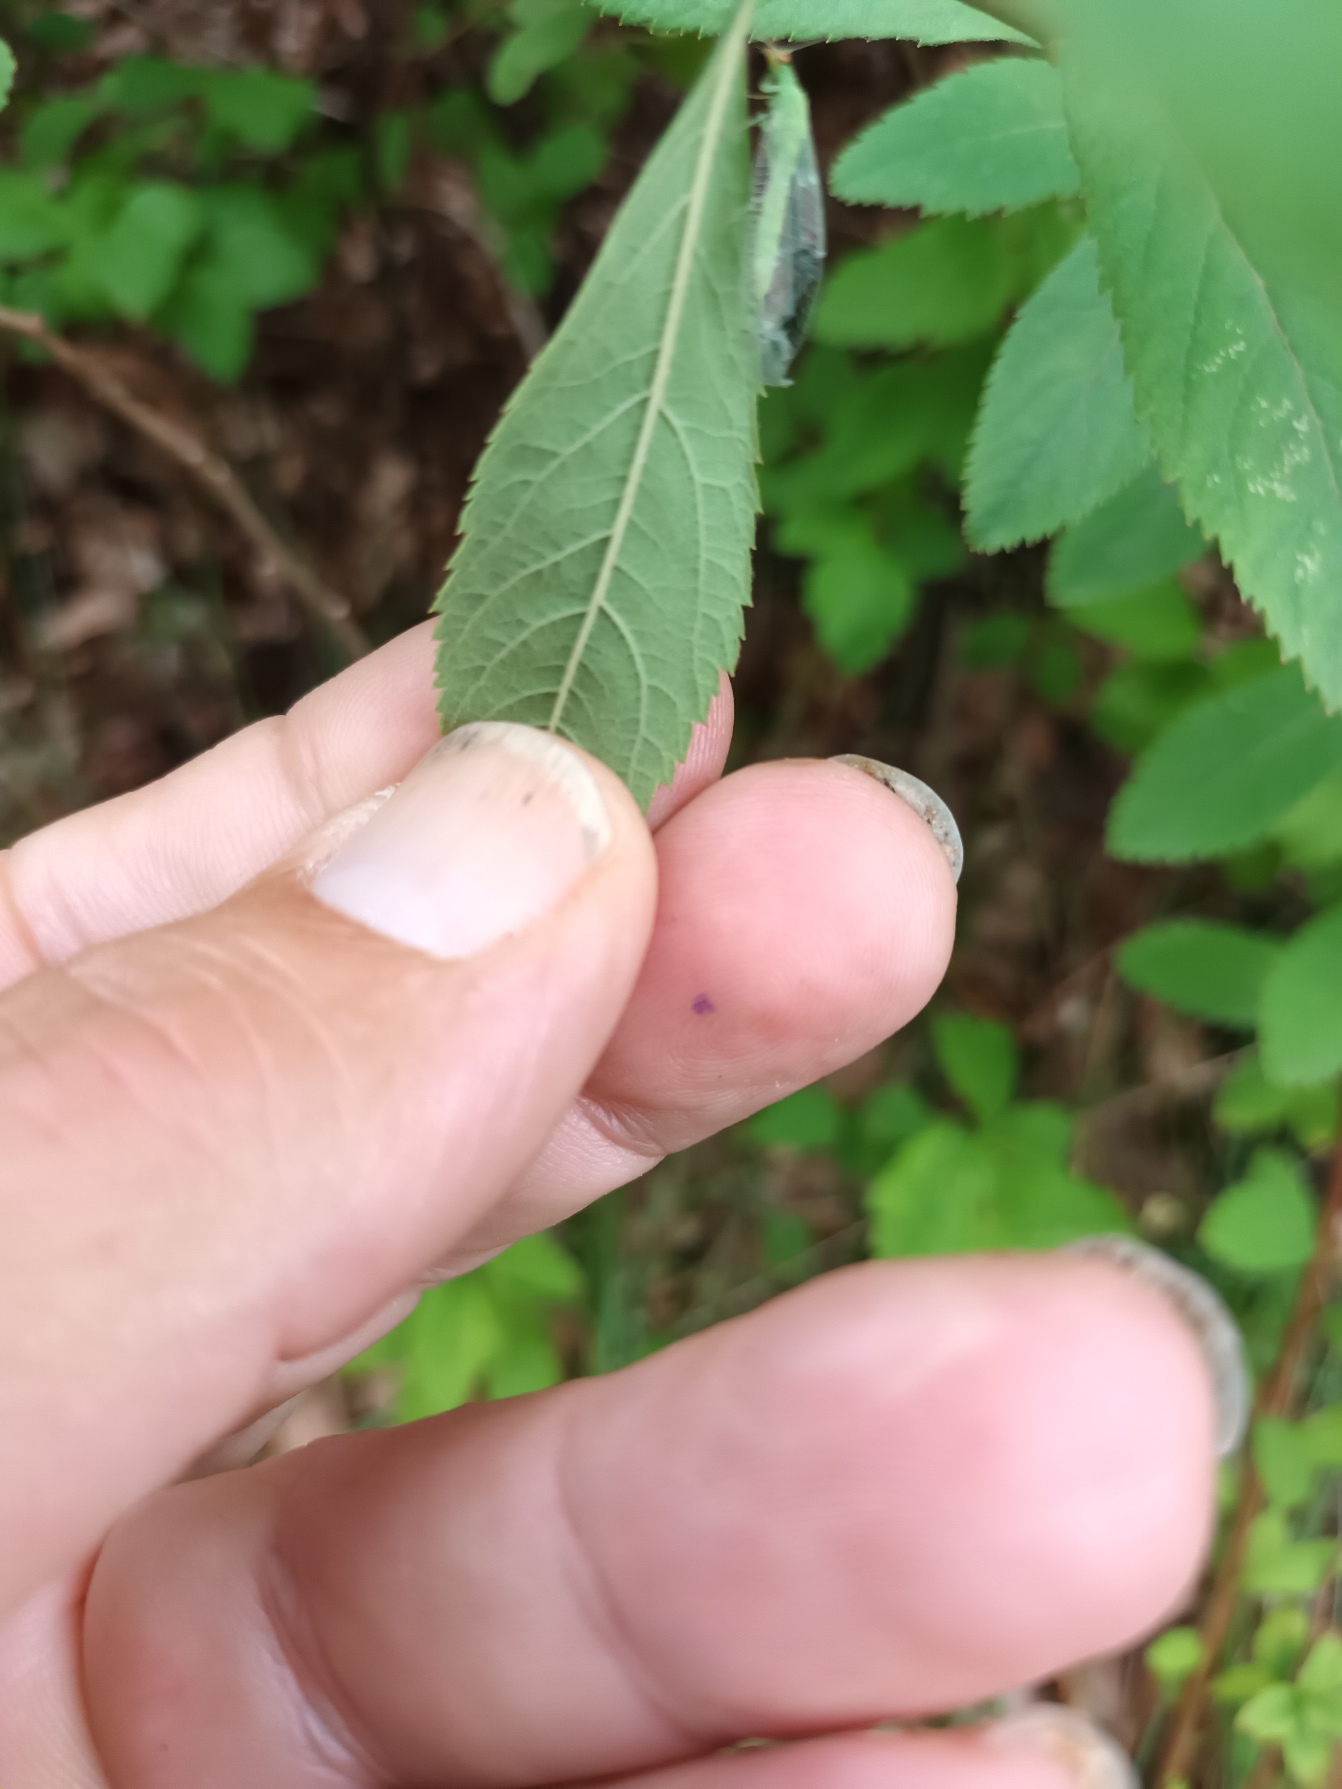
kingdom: Plantae
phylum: Tracheophyta
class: Magnoliopsida
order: Rosales
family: Rosaceae
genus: Spiraea
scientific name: Spiraea billardii
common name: Klase-spiræa
